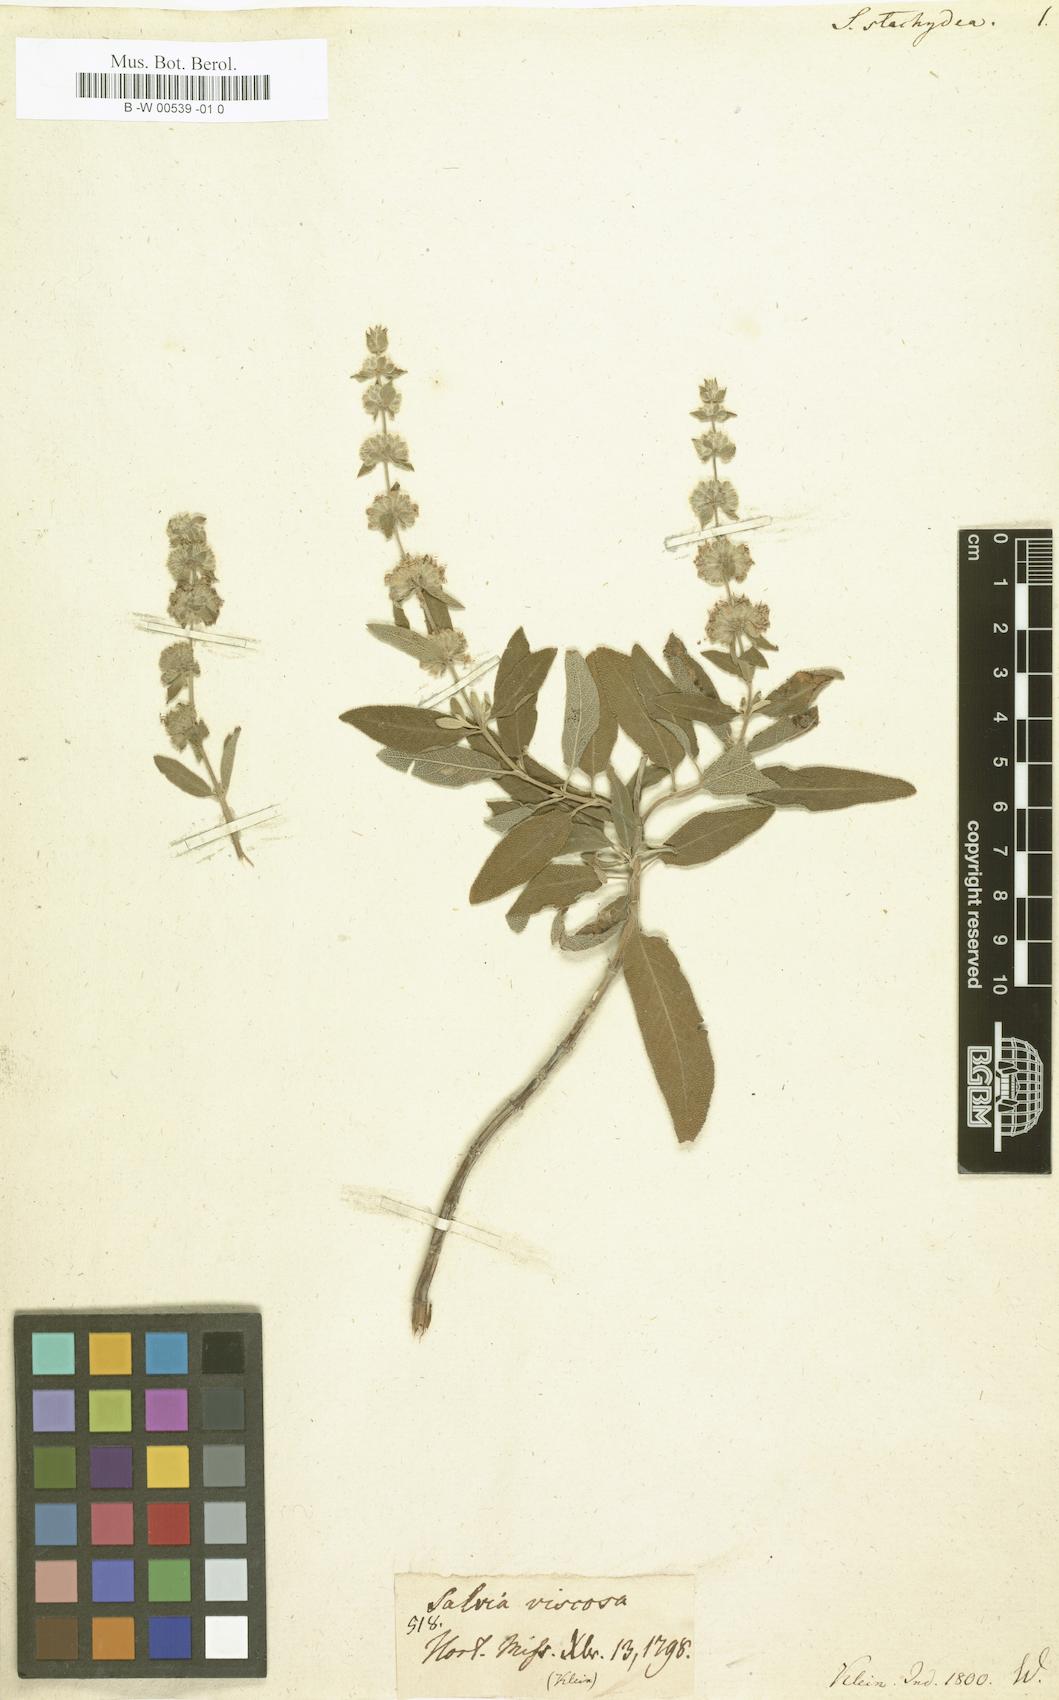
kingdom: Plantae
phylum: Tracheophyta
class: Magnoliopsida
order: Lamiales
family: Lamiaceae
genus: Salvia
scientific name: Salvia dianthera
